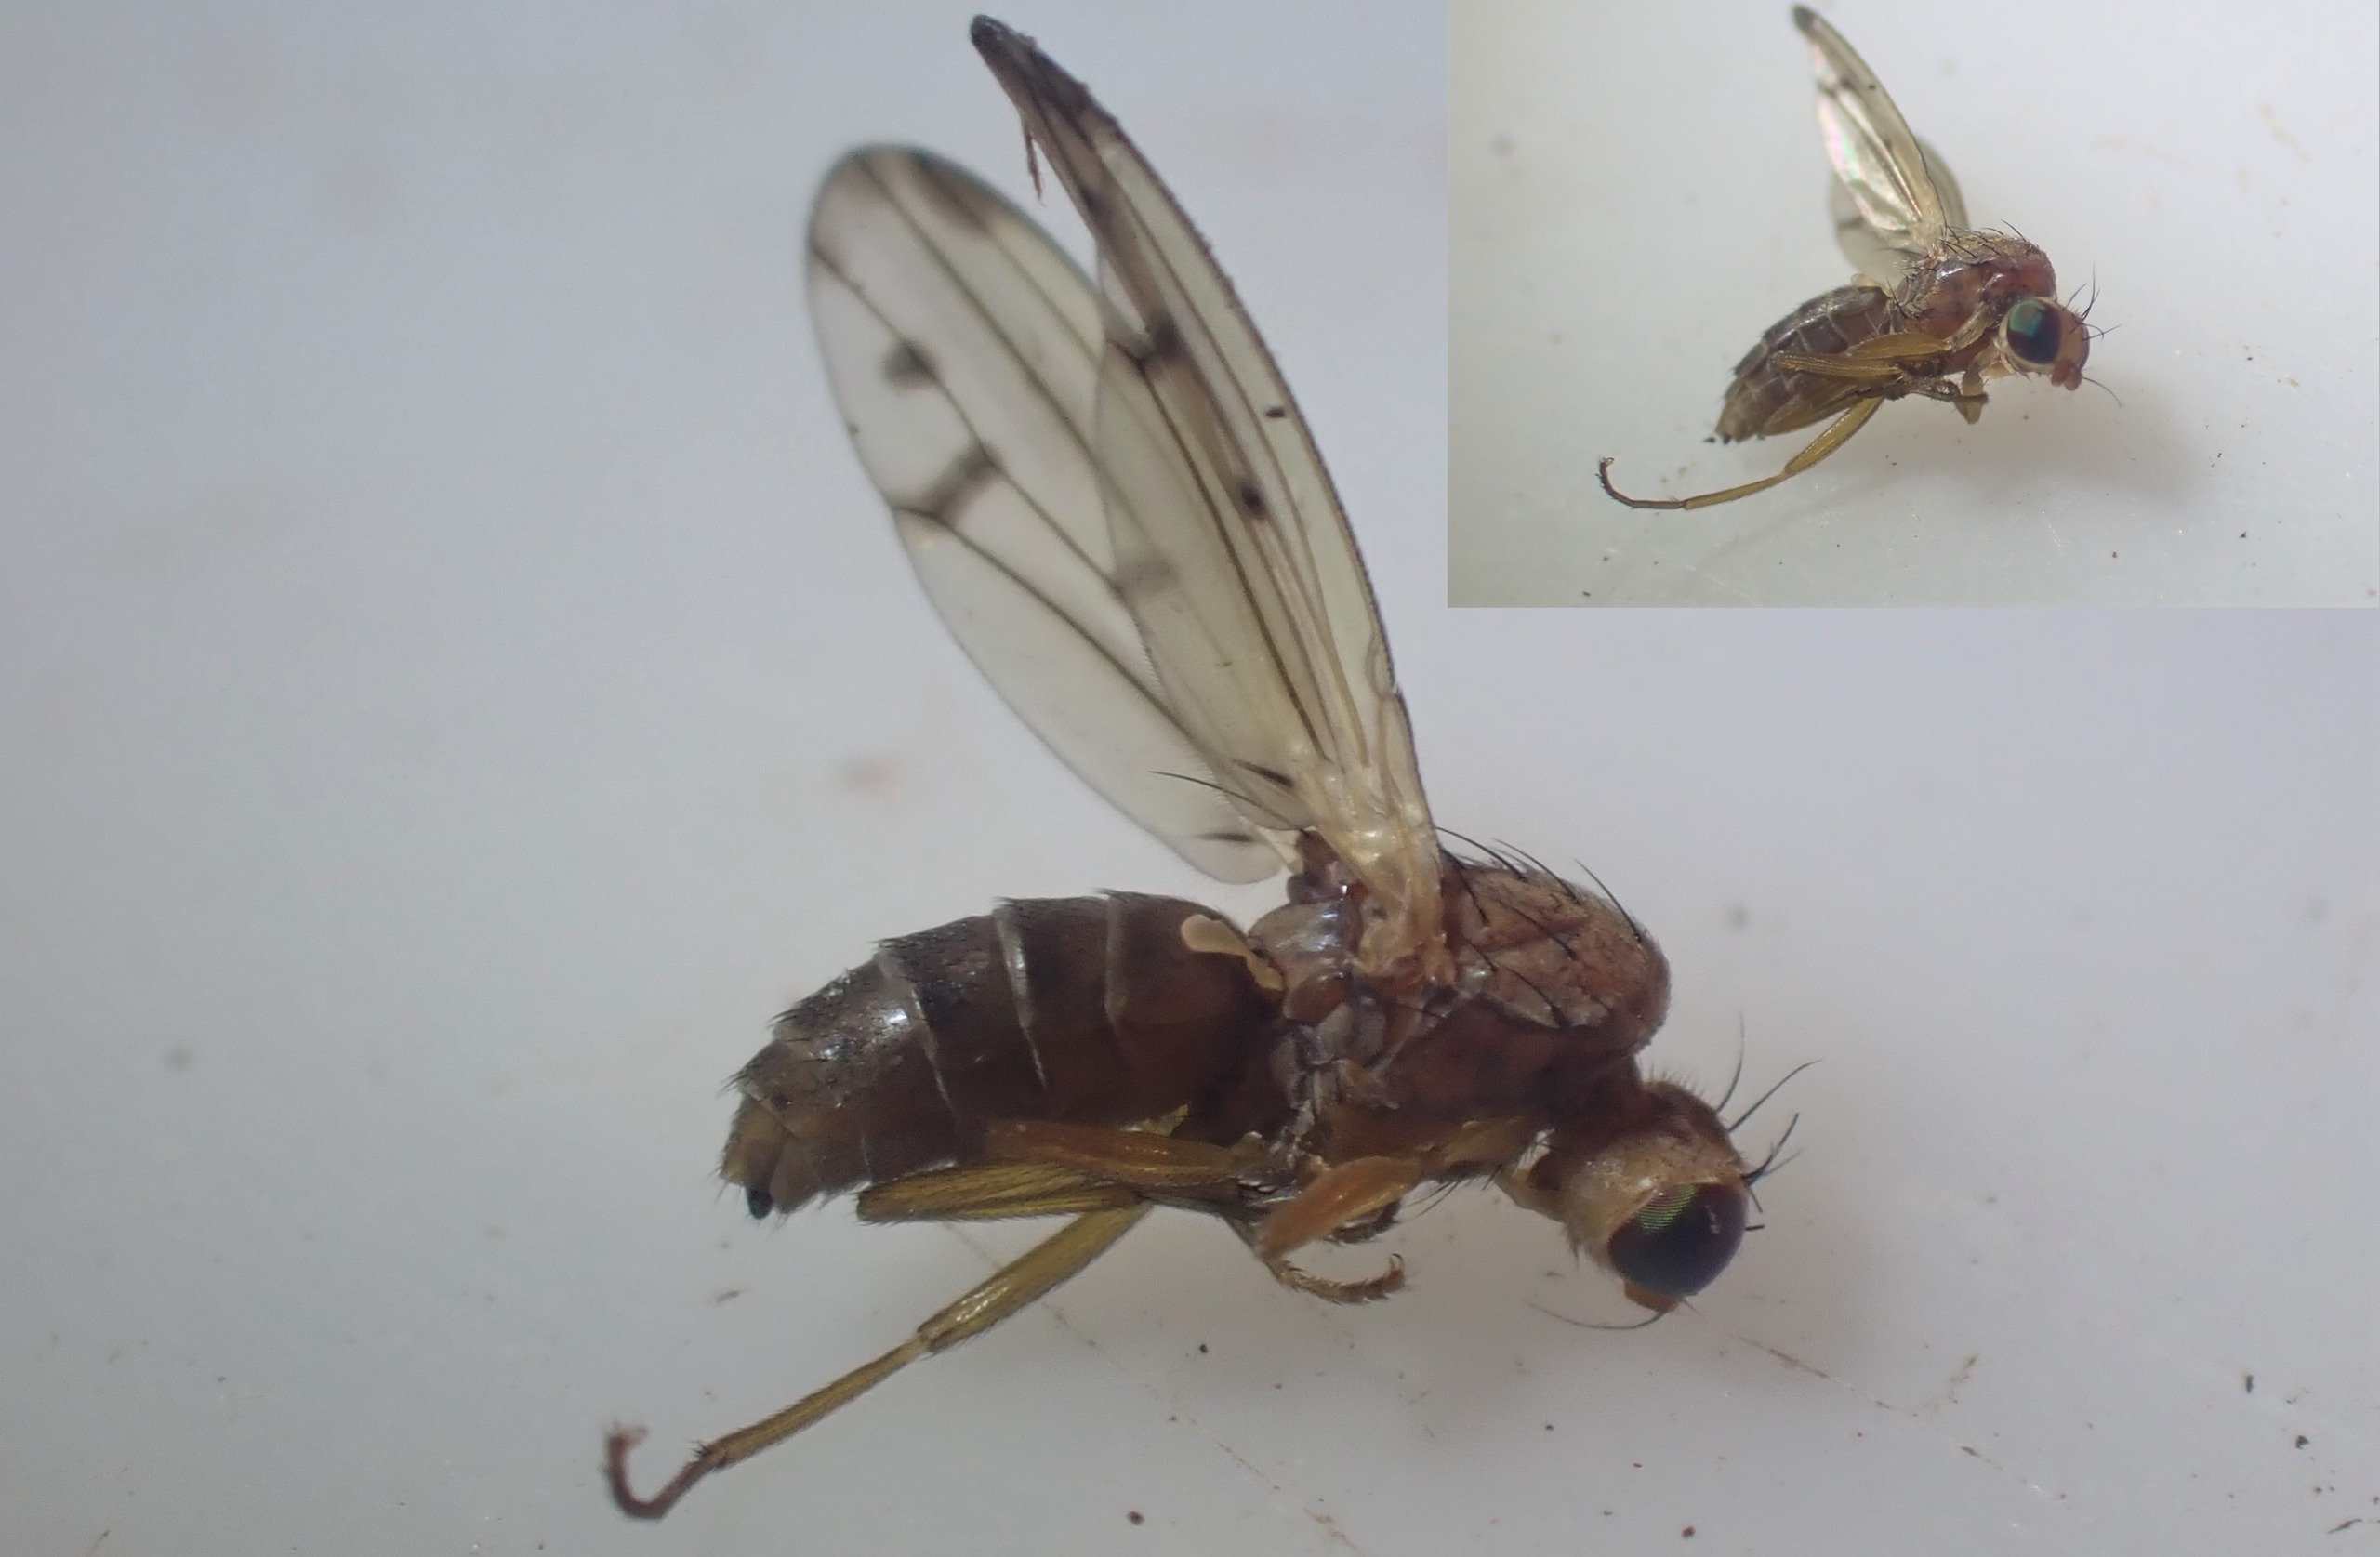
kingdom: Animalia
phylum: Arthropoda
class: Insecta
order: Diptera
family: Opomyzidae
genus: Opomyza
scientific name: Opomyza florum
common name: Gul græsflue
